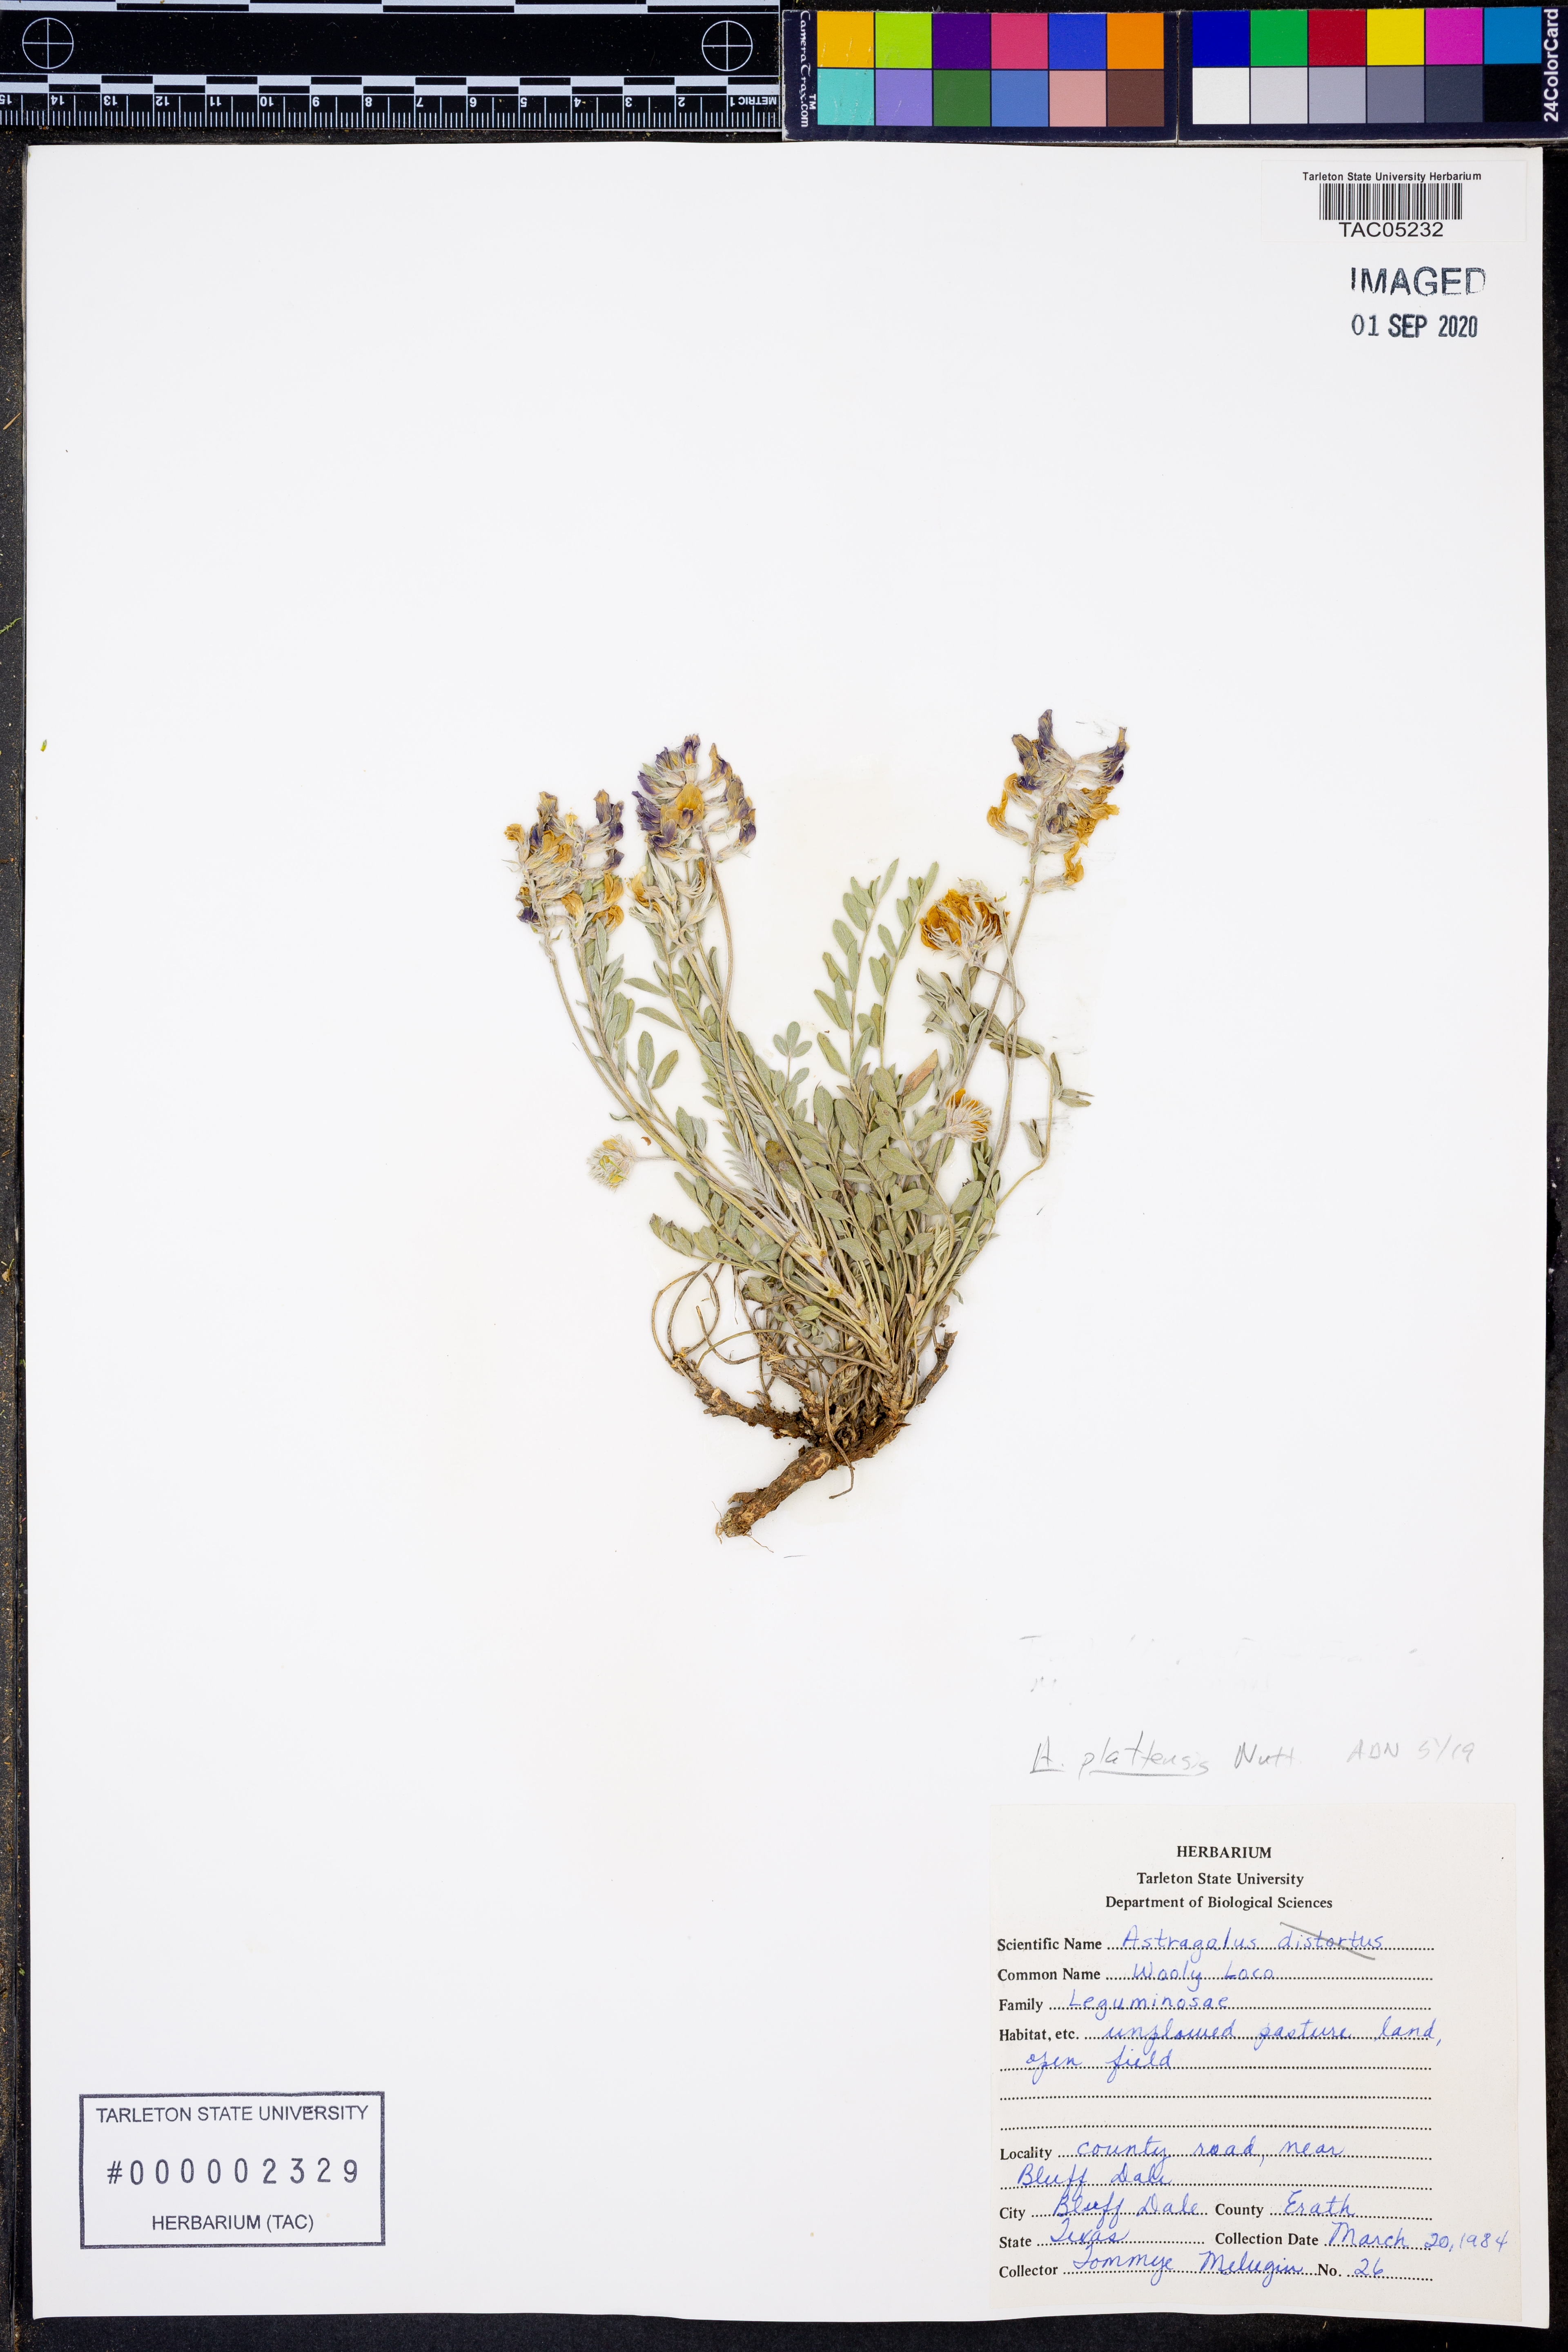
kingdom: Plantae
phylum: Tracheophyta
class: Magnoliopsida
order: Fabales
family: Fabaceae
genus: Astragalus
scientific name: Astragalus plattensis
